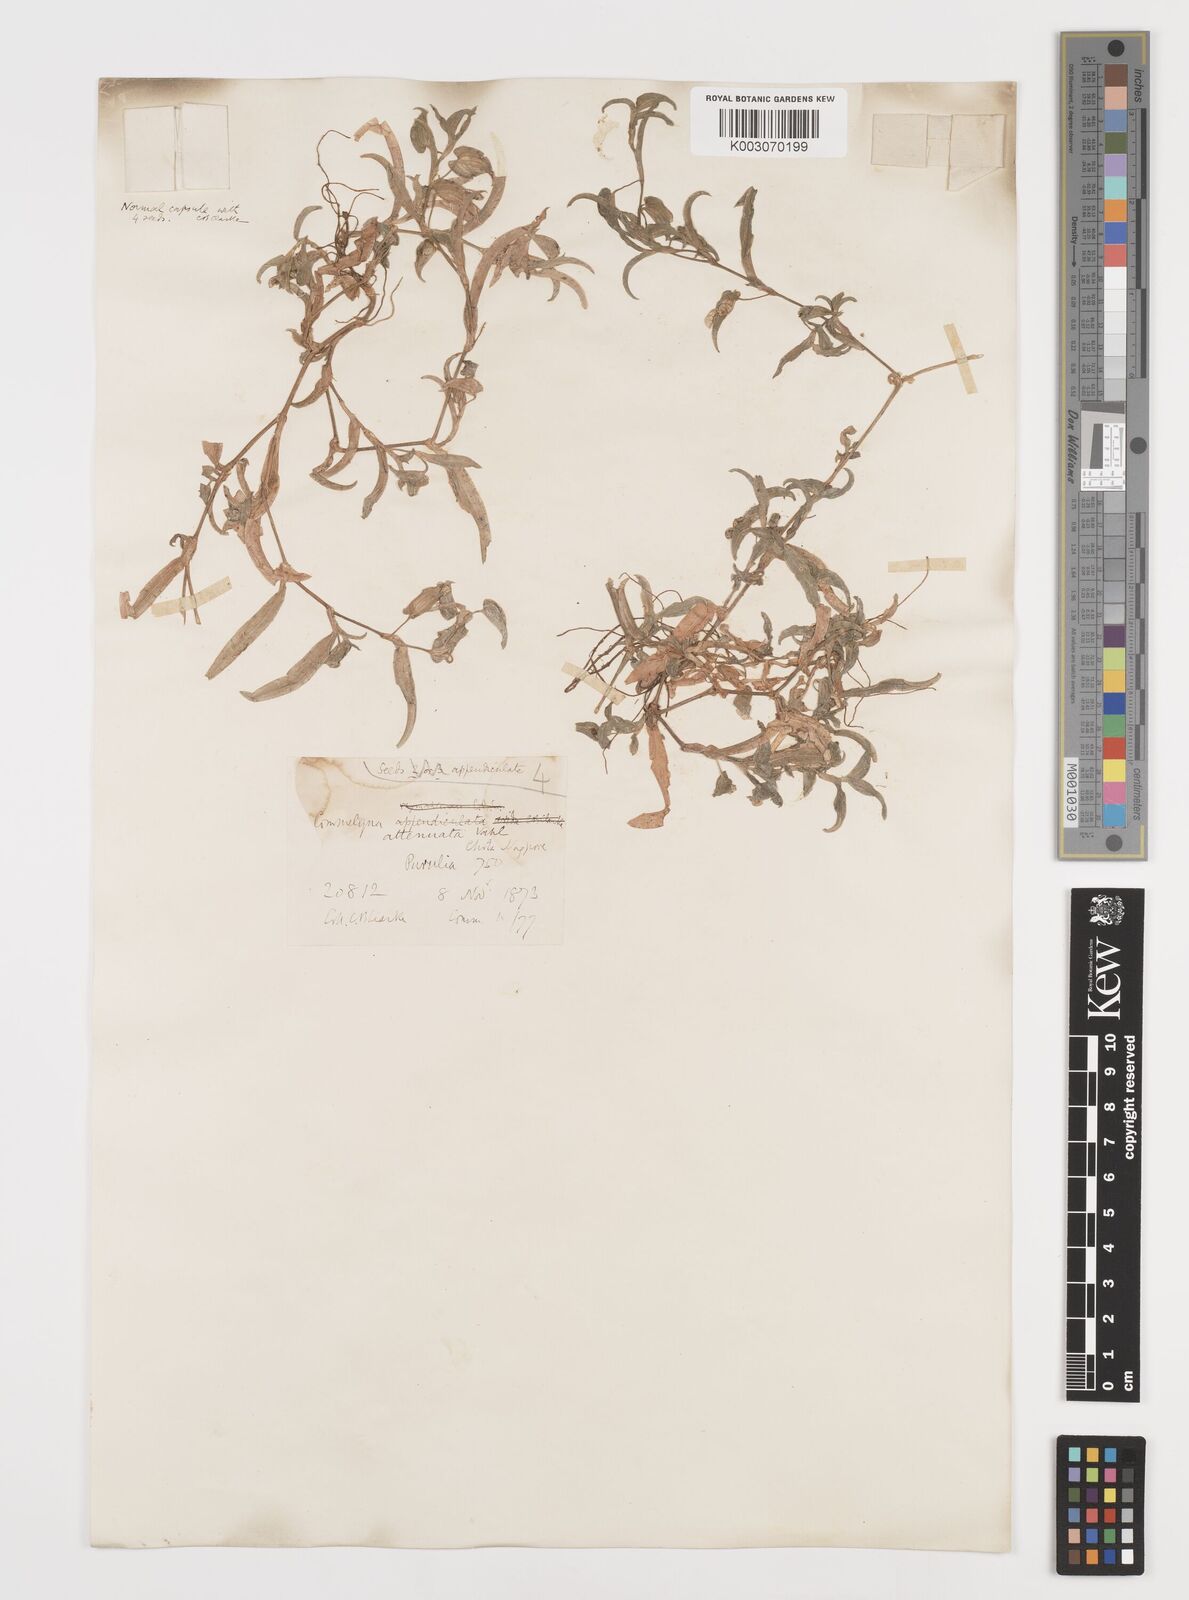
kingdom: Plantae
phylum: Tracheophyta
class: Liliopsida
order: Commelinales
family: Commelinaceae
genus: Commelina
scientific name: Commelina attenuata
